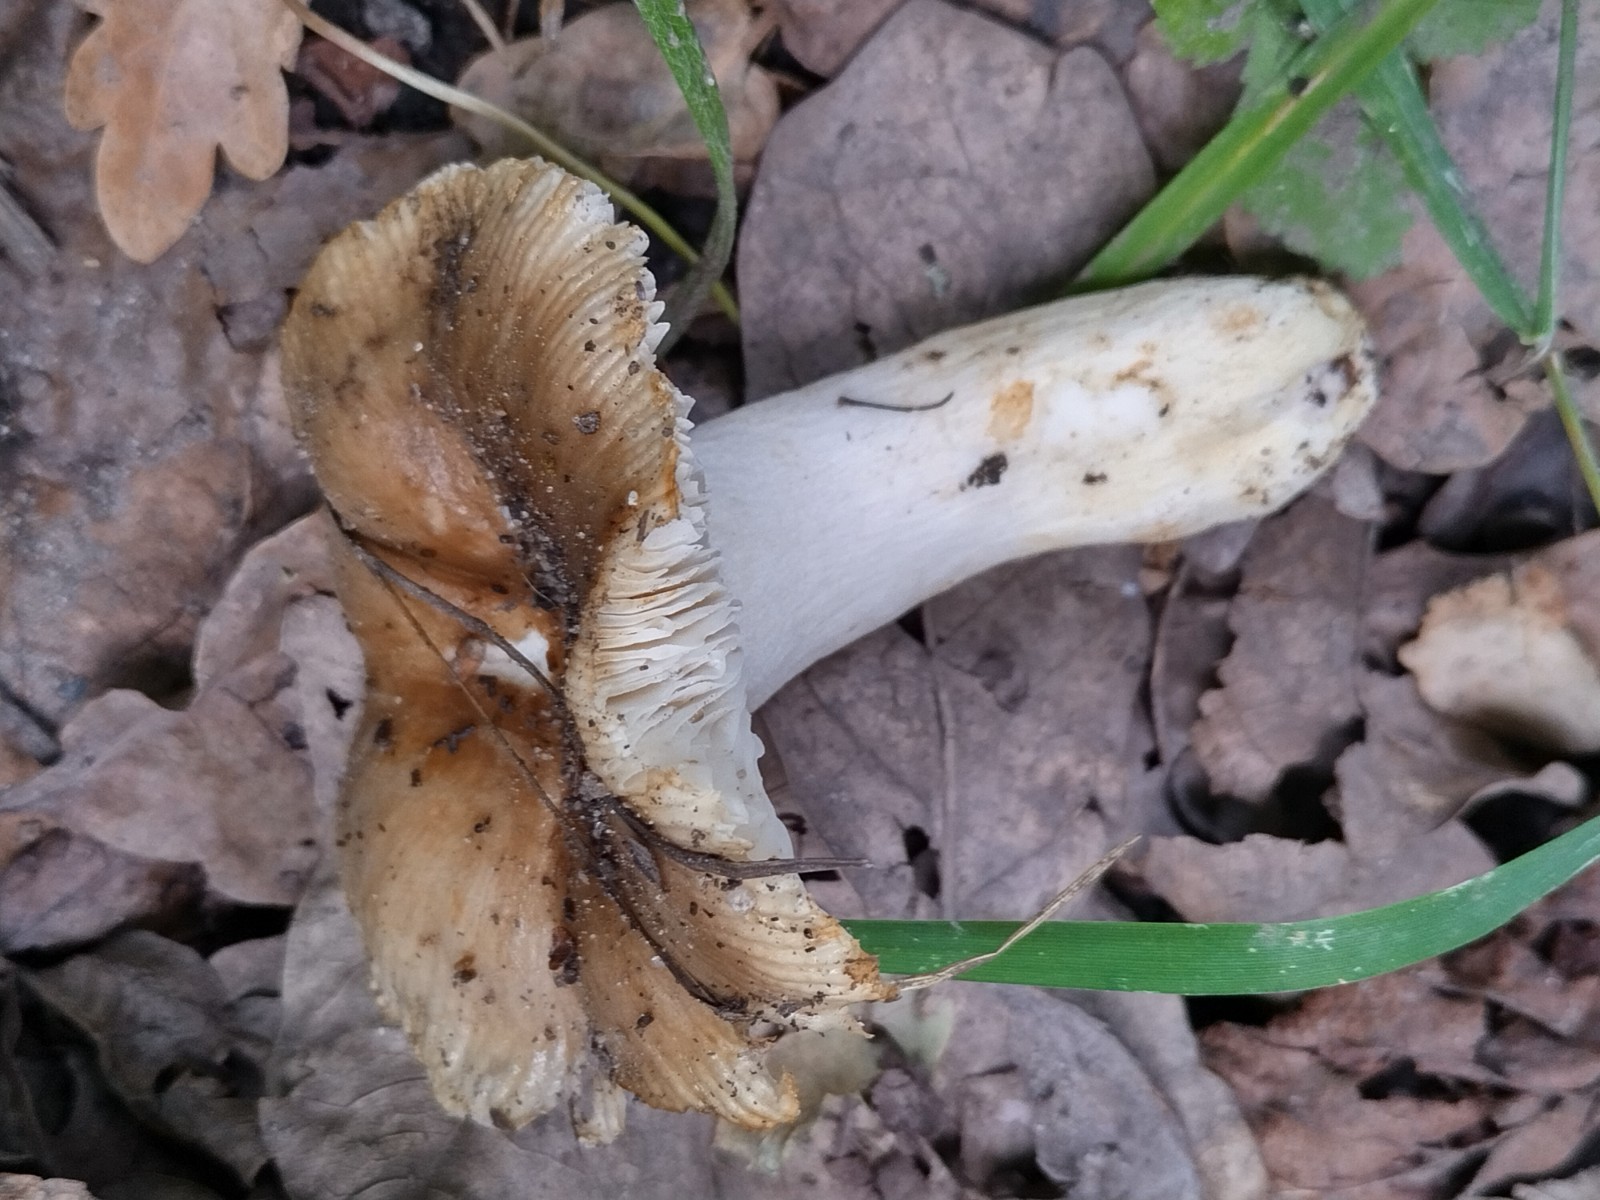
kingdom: Fungi
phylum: Basidiomycota
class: Agaricomycetes
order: Russulales
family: Russulaceae
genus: Russula
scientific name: Russula recondita
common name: mild kam-skørhat
